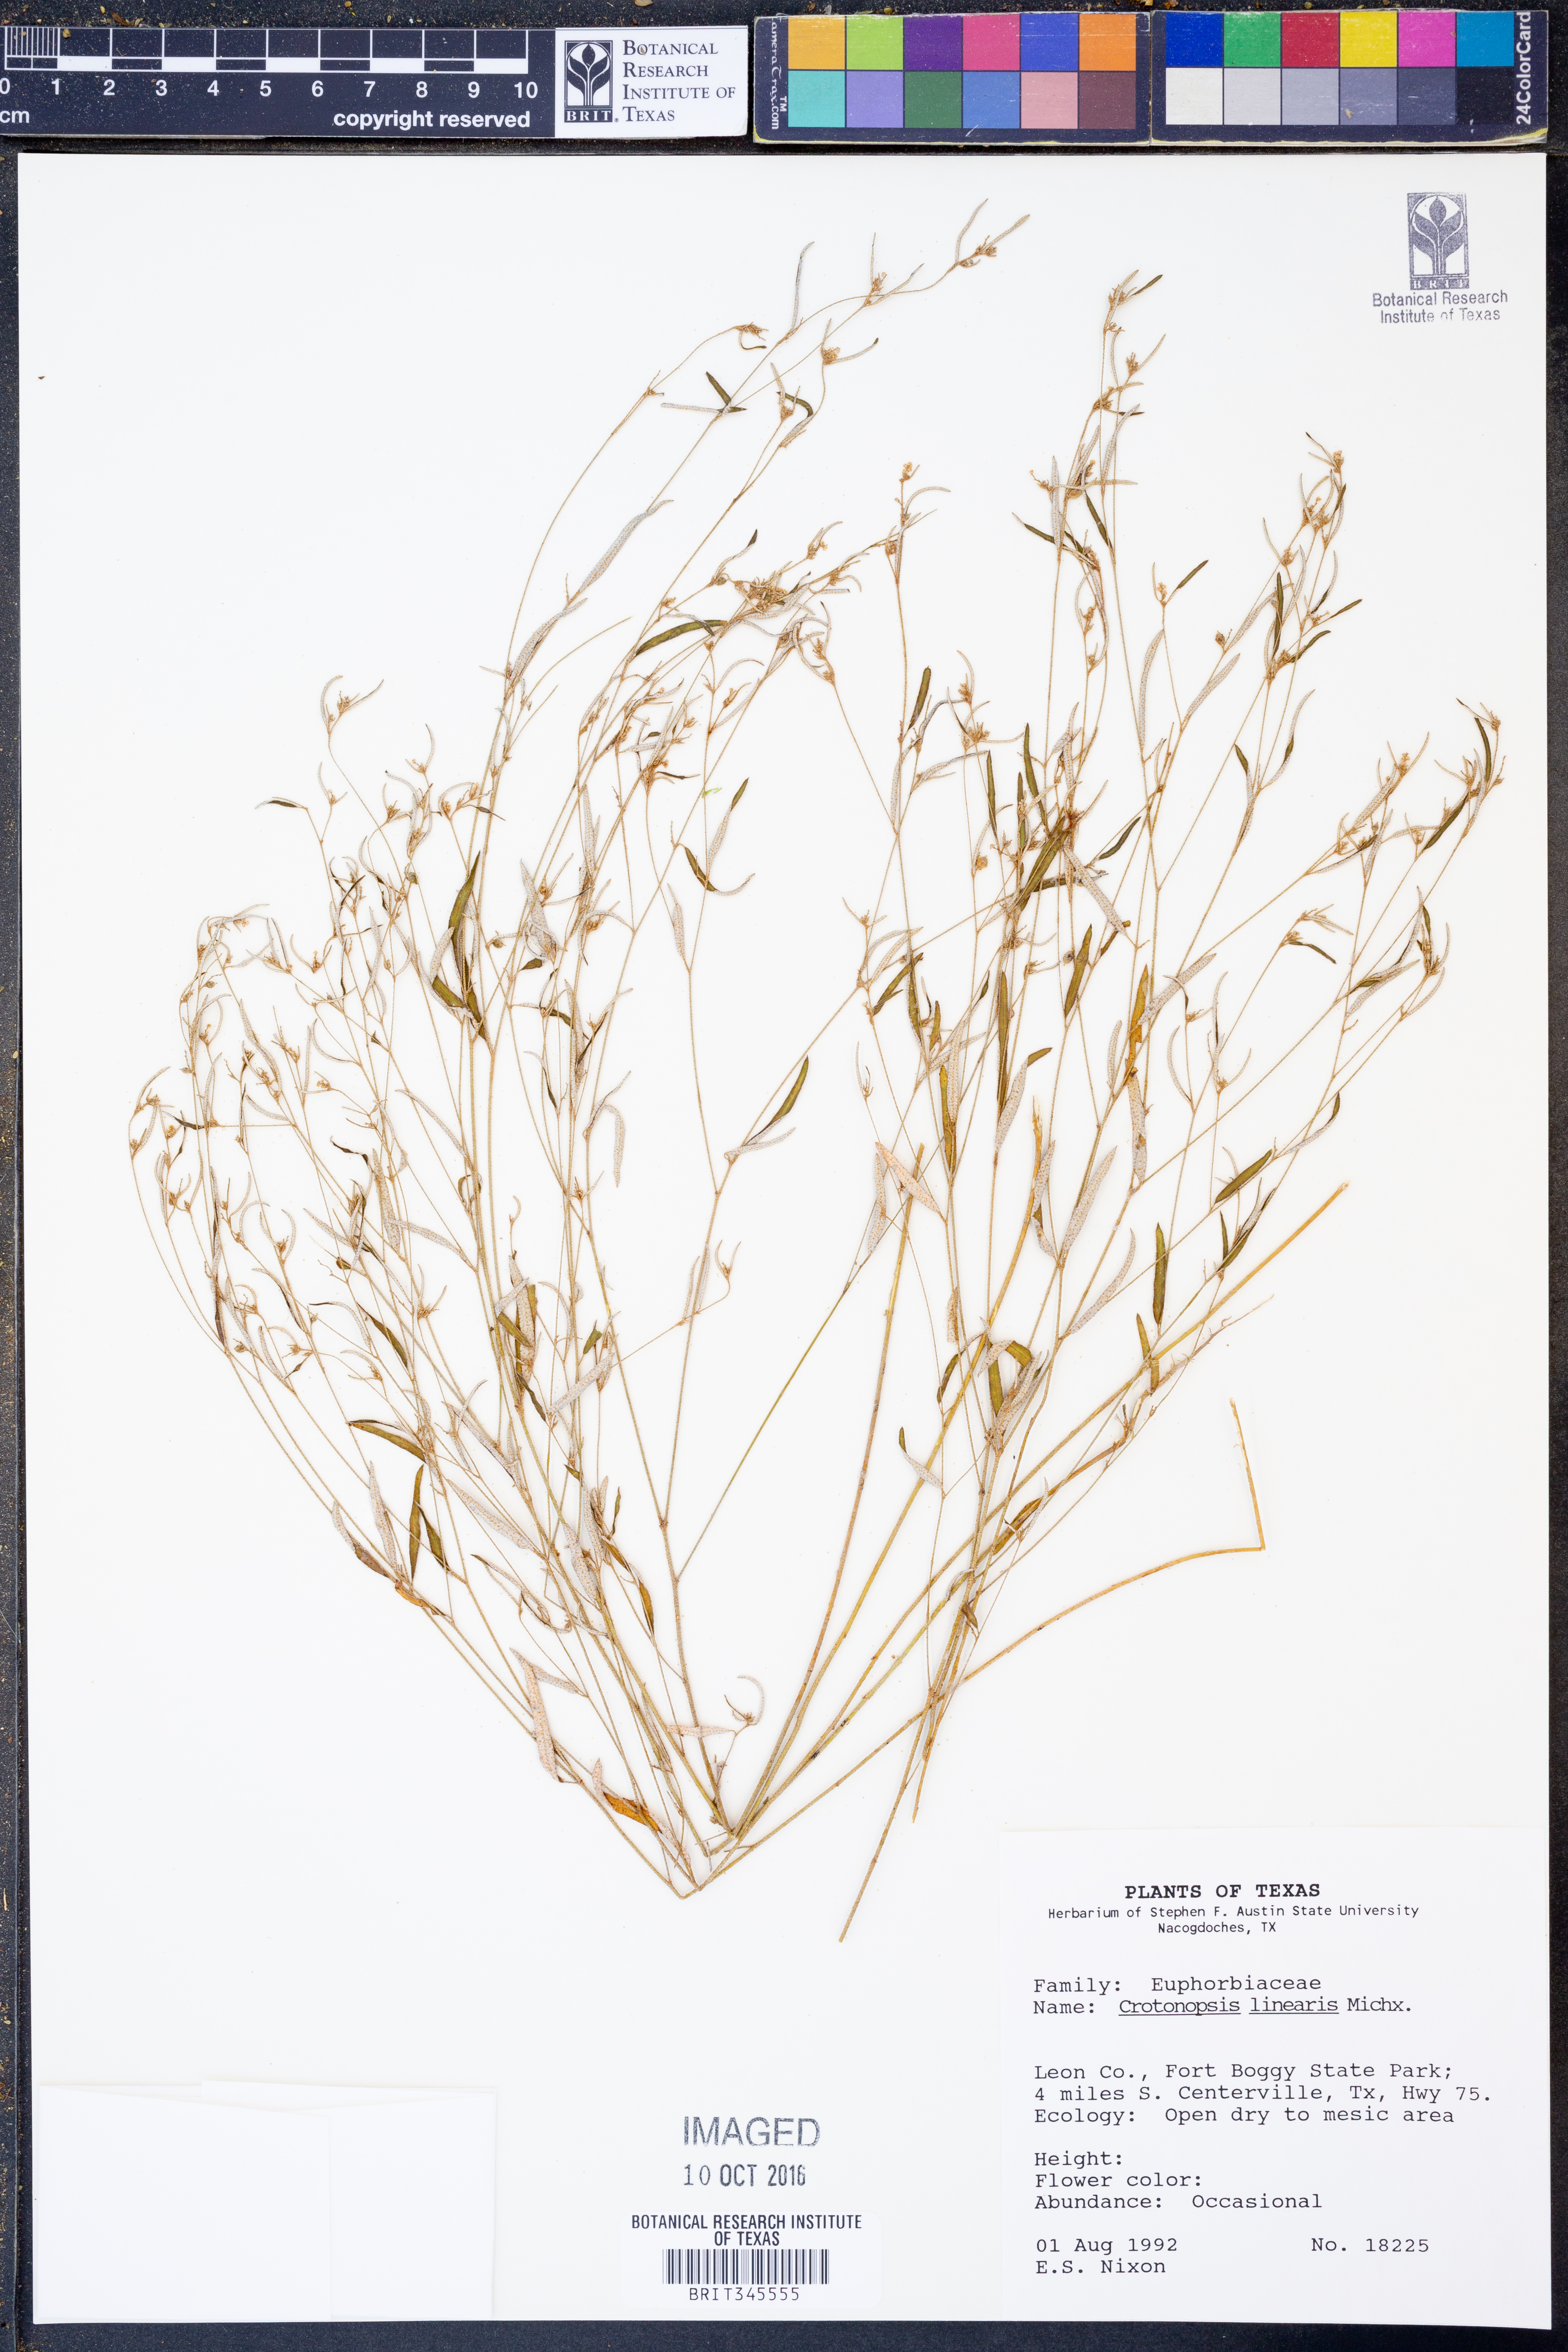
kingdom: Plantae
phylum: Tracheophyta
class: Magnoliopsida
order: Malpighiales
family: Euphorbiaceae
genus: Croton
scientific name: Croton michauxii
